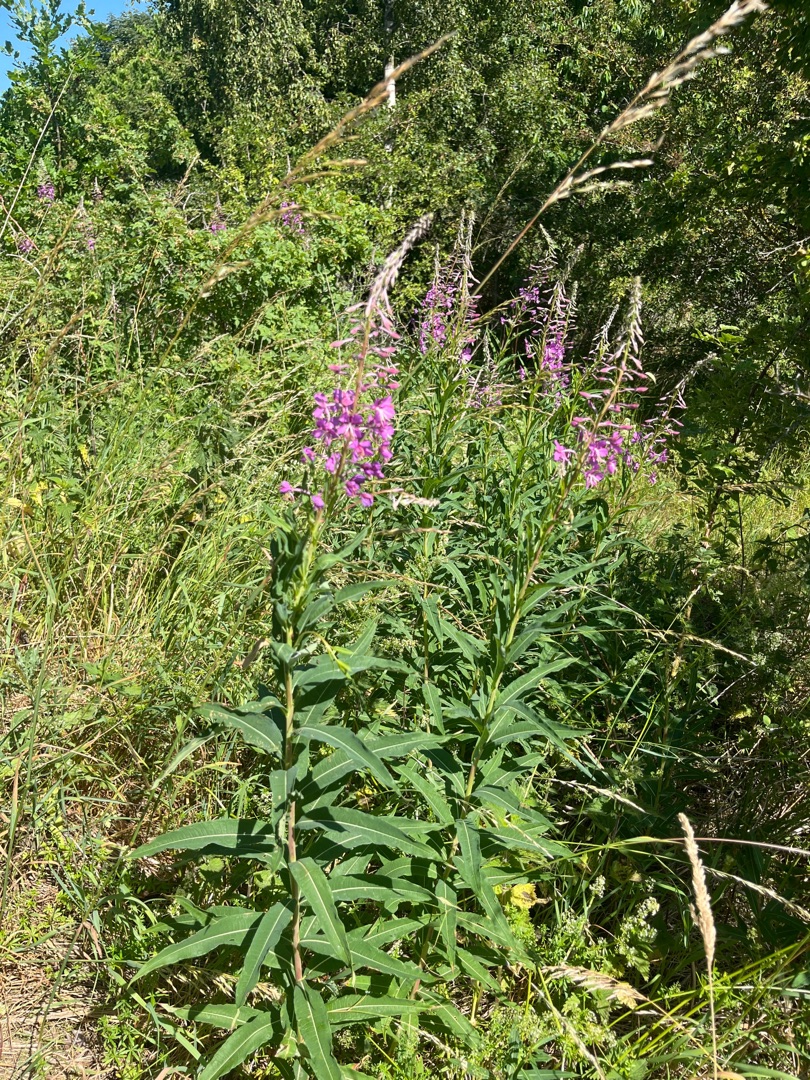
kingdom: Plantae
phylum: Tracheophyta
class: Magnoliopsida
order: Myrtales
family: Onagraceae
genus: Chamaenerion
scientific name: Chamaenerion angustifolium
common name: Gederams
